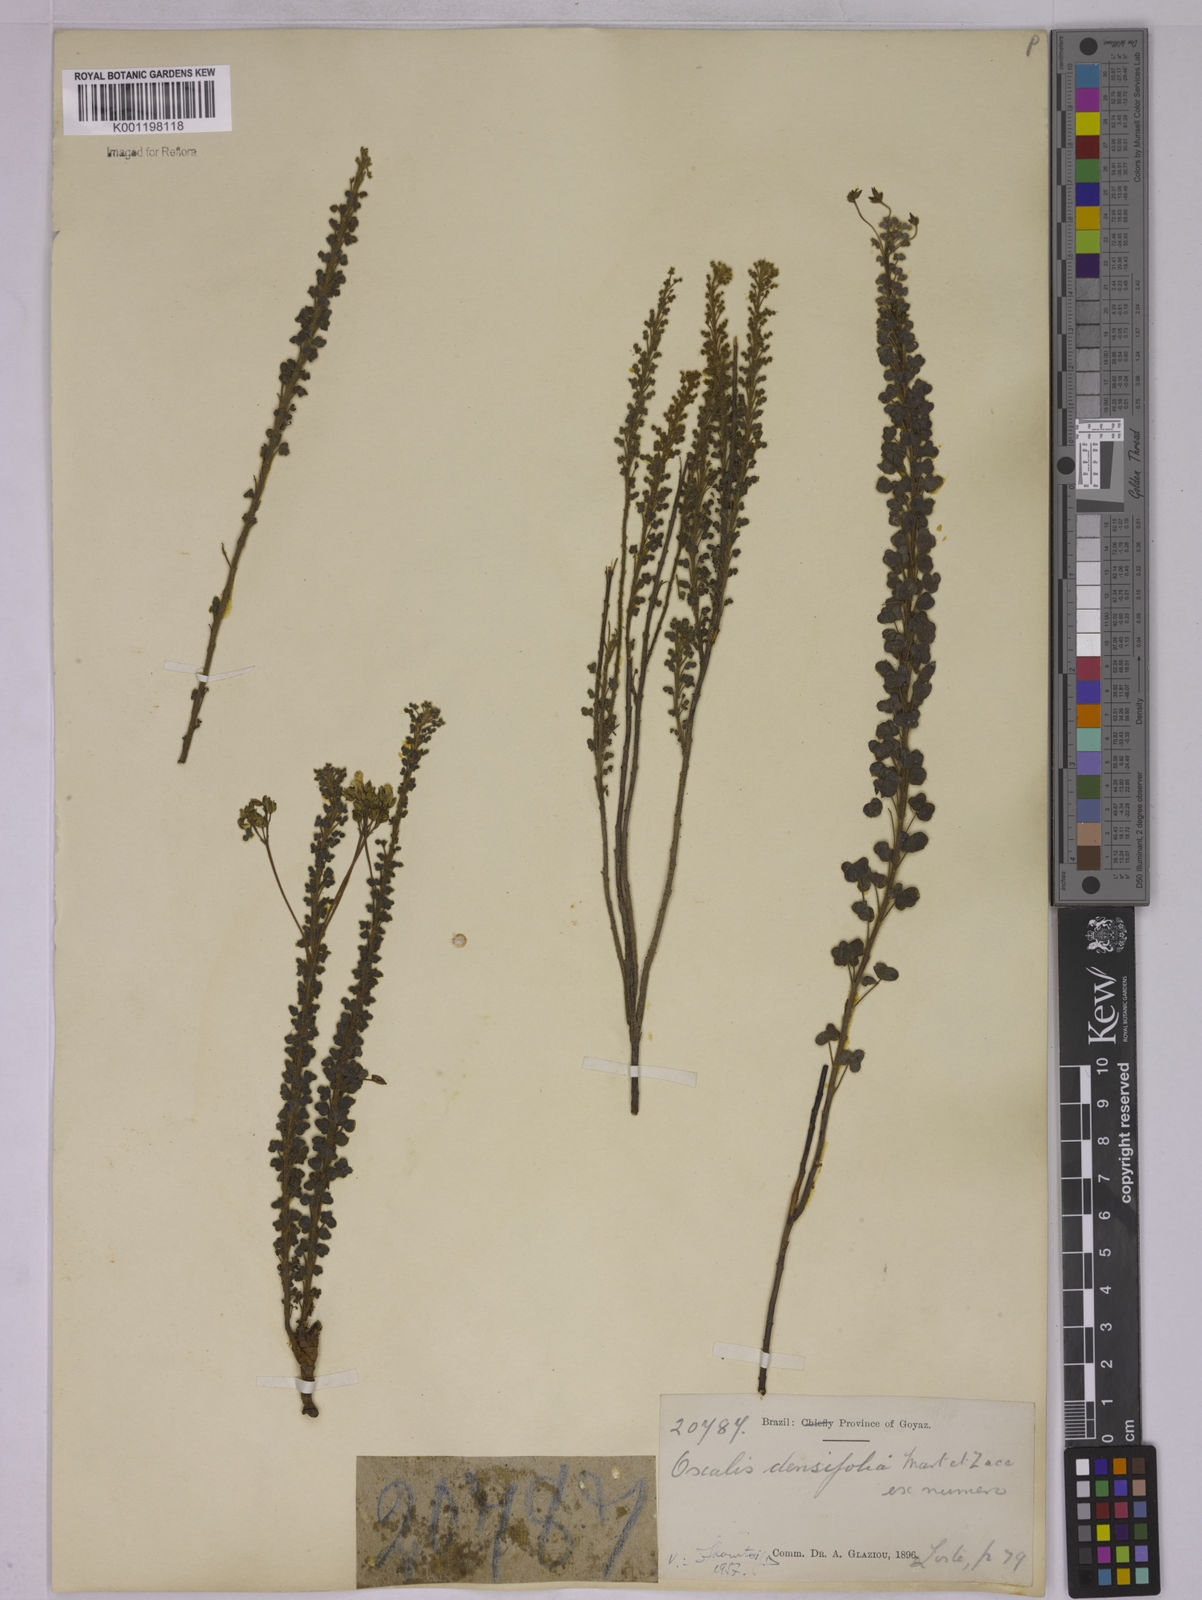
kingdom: Plantae
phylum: Tracheophyta
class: Magnoliopsida
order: Oxalidales
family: Oxalidaceae
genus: Oxalis
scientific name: Oxalis densifolia
